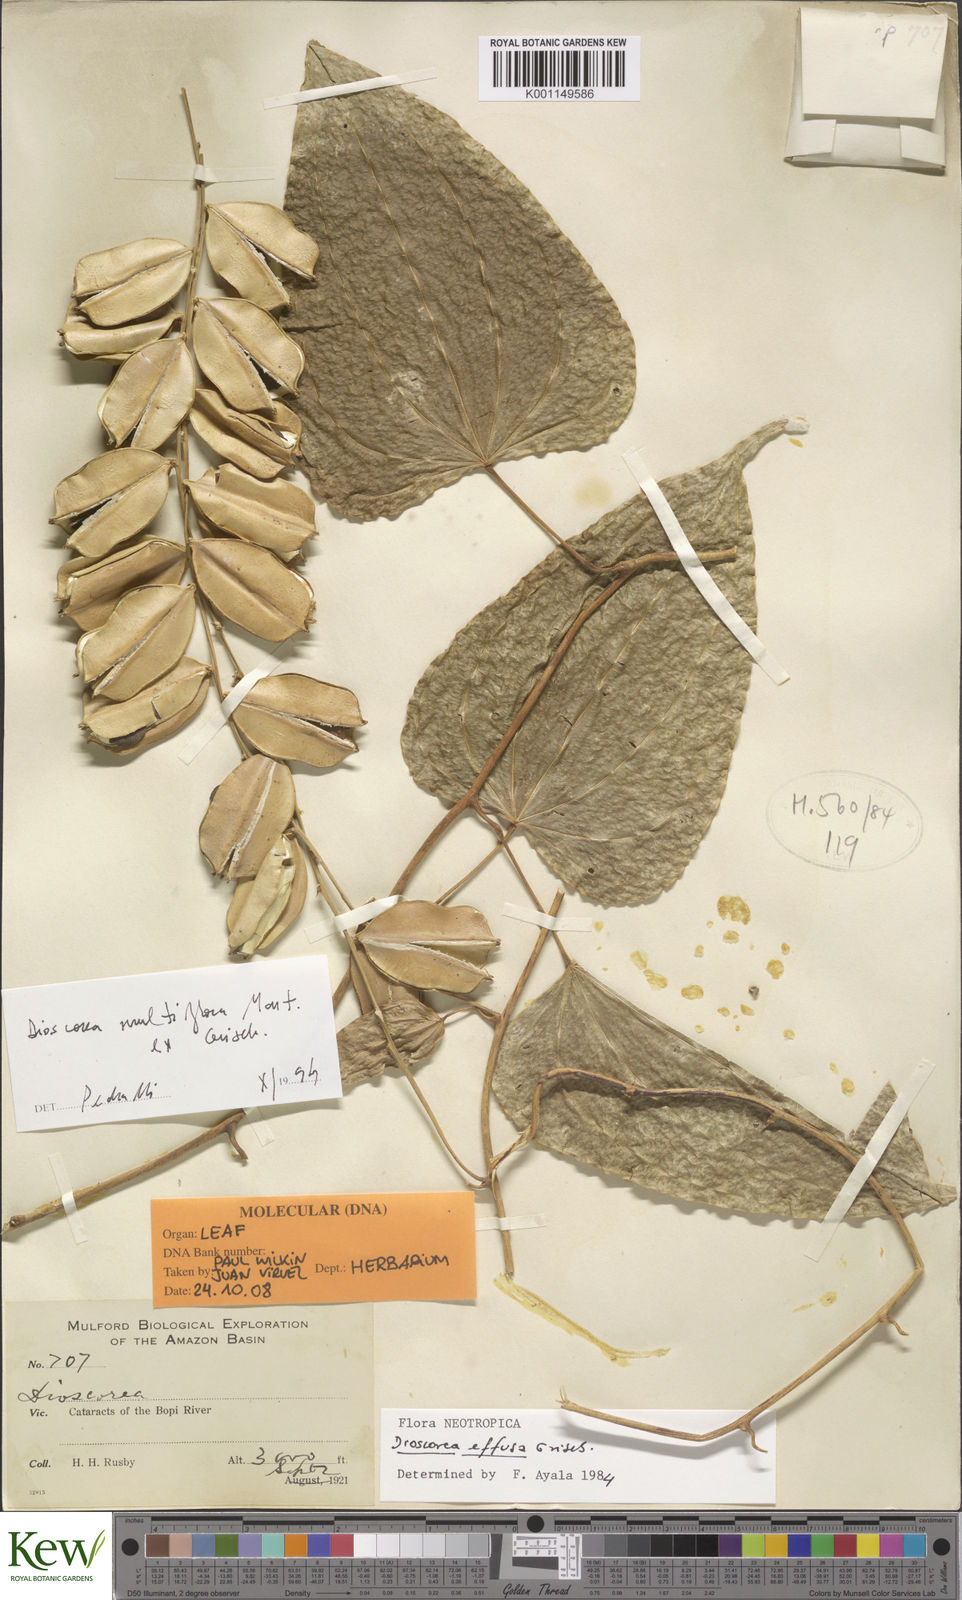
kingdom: Plantae
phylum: Tracheophyta
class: Liliopsida
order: Dioscoreales
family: Dioscoreaceae
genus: Dioscorea
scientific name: Dioscorea fodinarum
